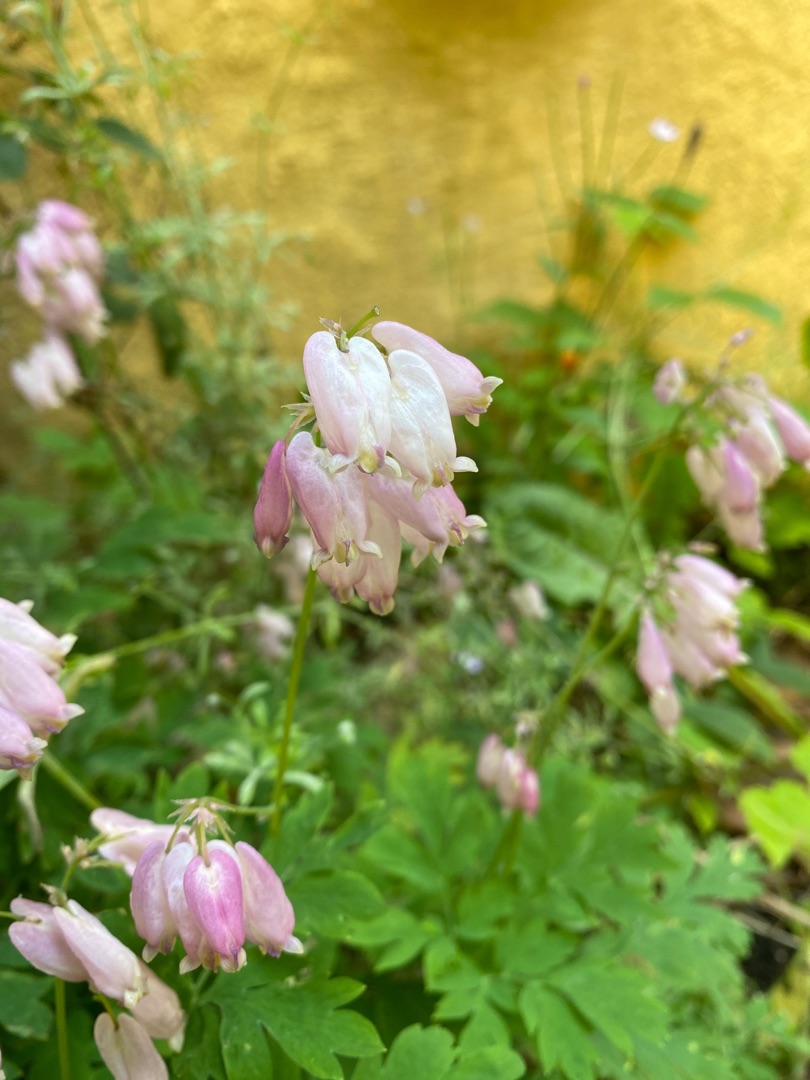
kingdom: Plantae
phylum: Tracheophyta
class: Magnoliopsida
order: Ranunculales
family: Papaveraceae
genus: Dicentra
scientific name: Dicentra formosa
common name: Småhjerte
